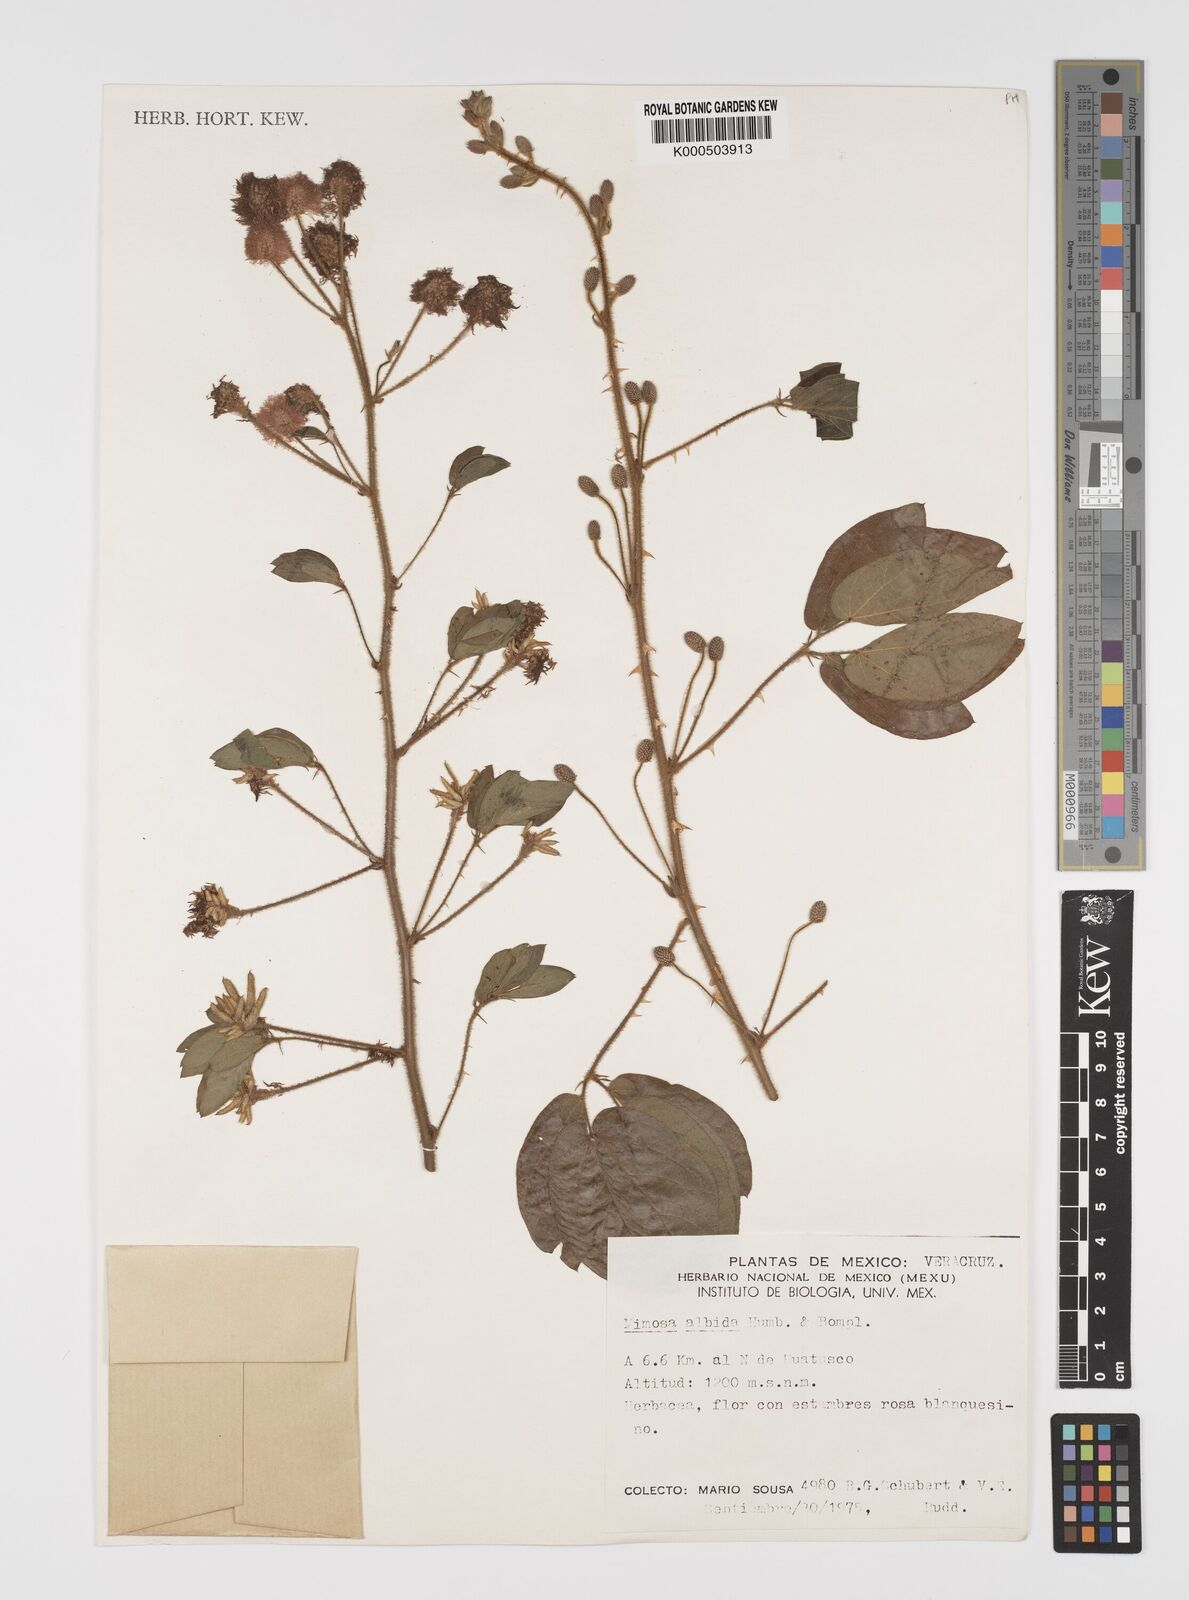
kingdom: Plantae
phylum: Tracheophyta
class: Magnoliopsida
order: Fabales
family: Fabaceae
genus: Mimosa
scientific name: Mimosa albida
